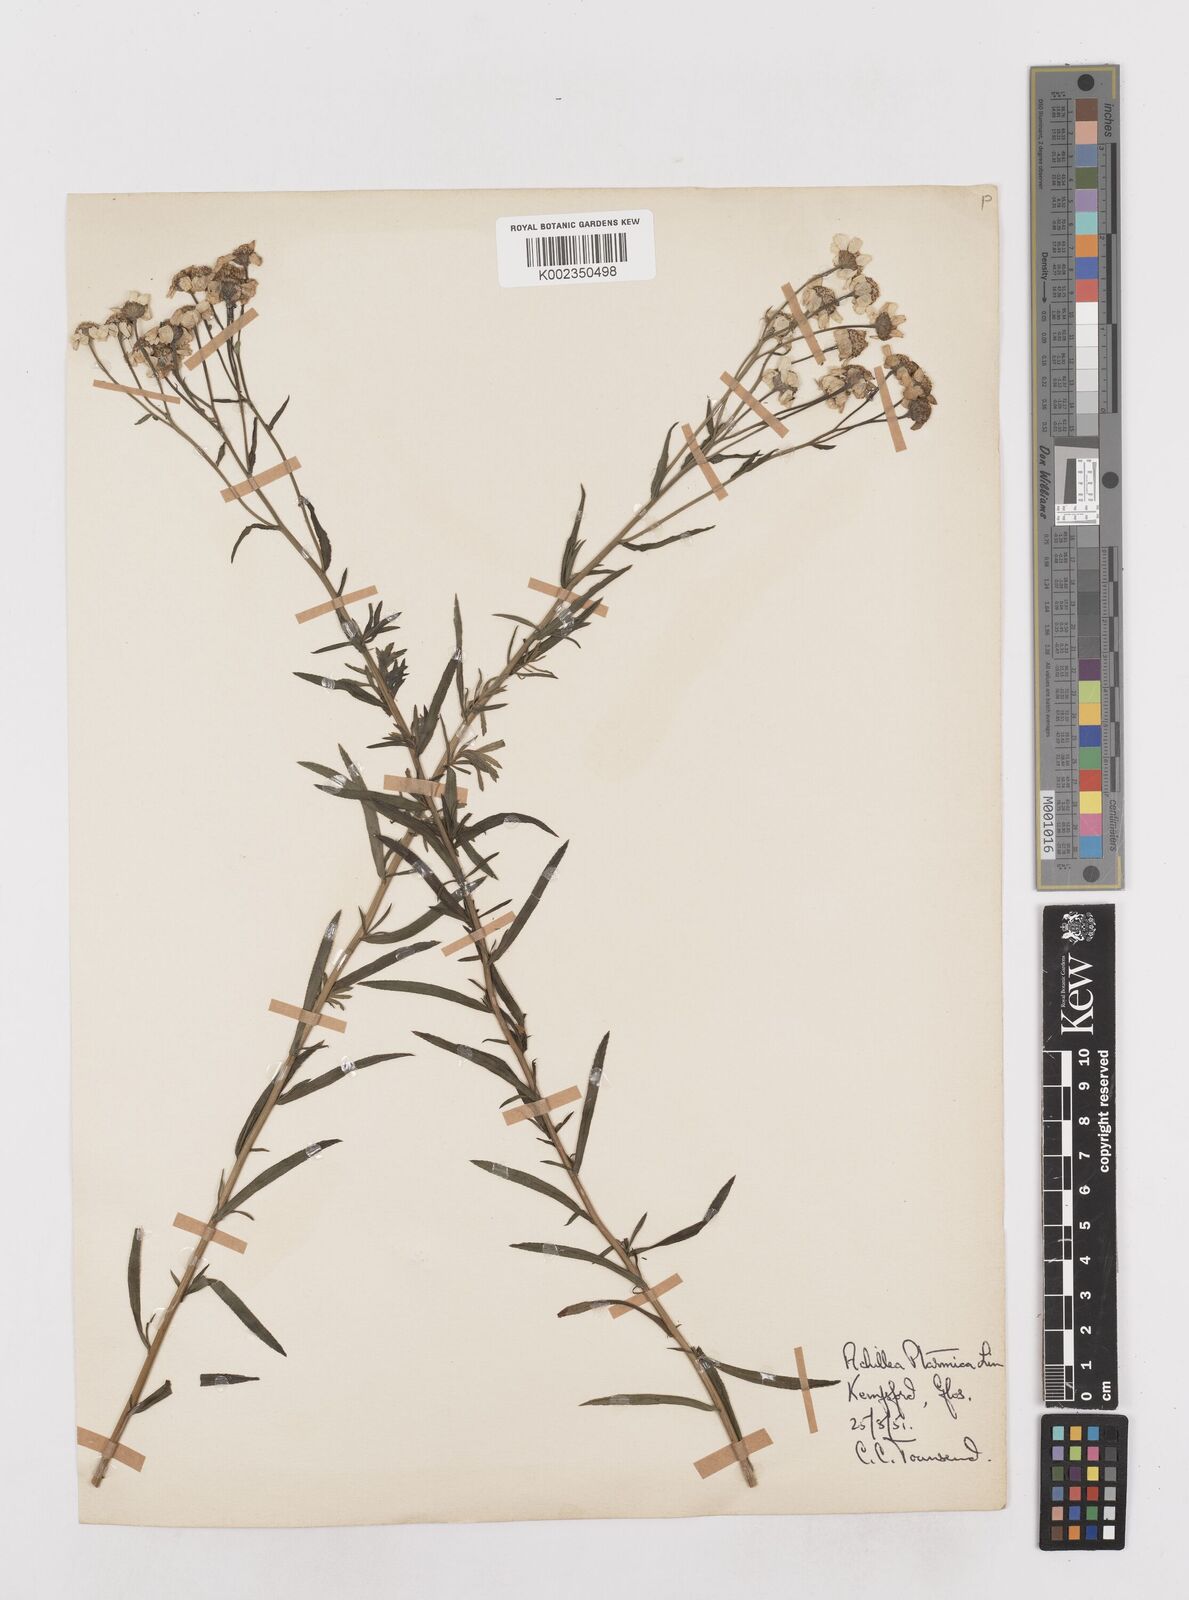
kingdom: Plantae
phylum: Tracheophyta
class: Magnoliopsida
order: Asterales
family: Asteraceae
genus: Achillea
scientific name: Achillea
